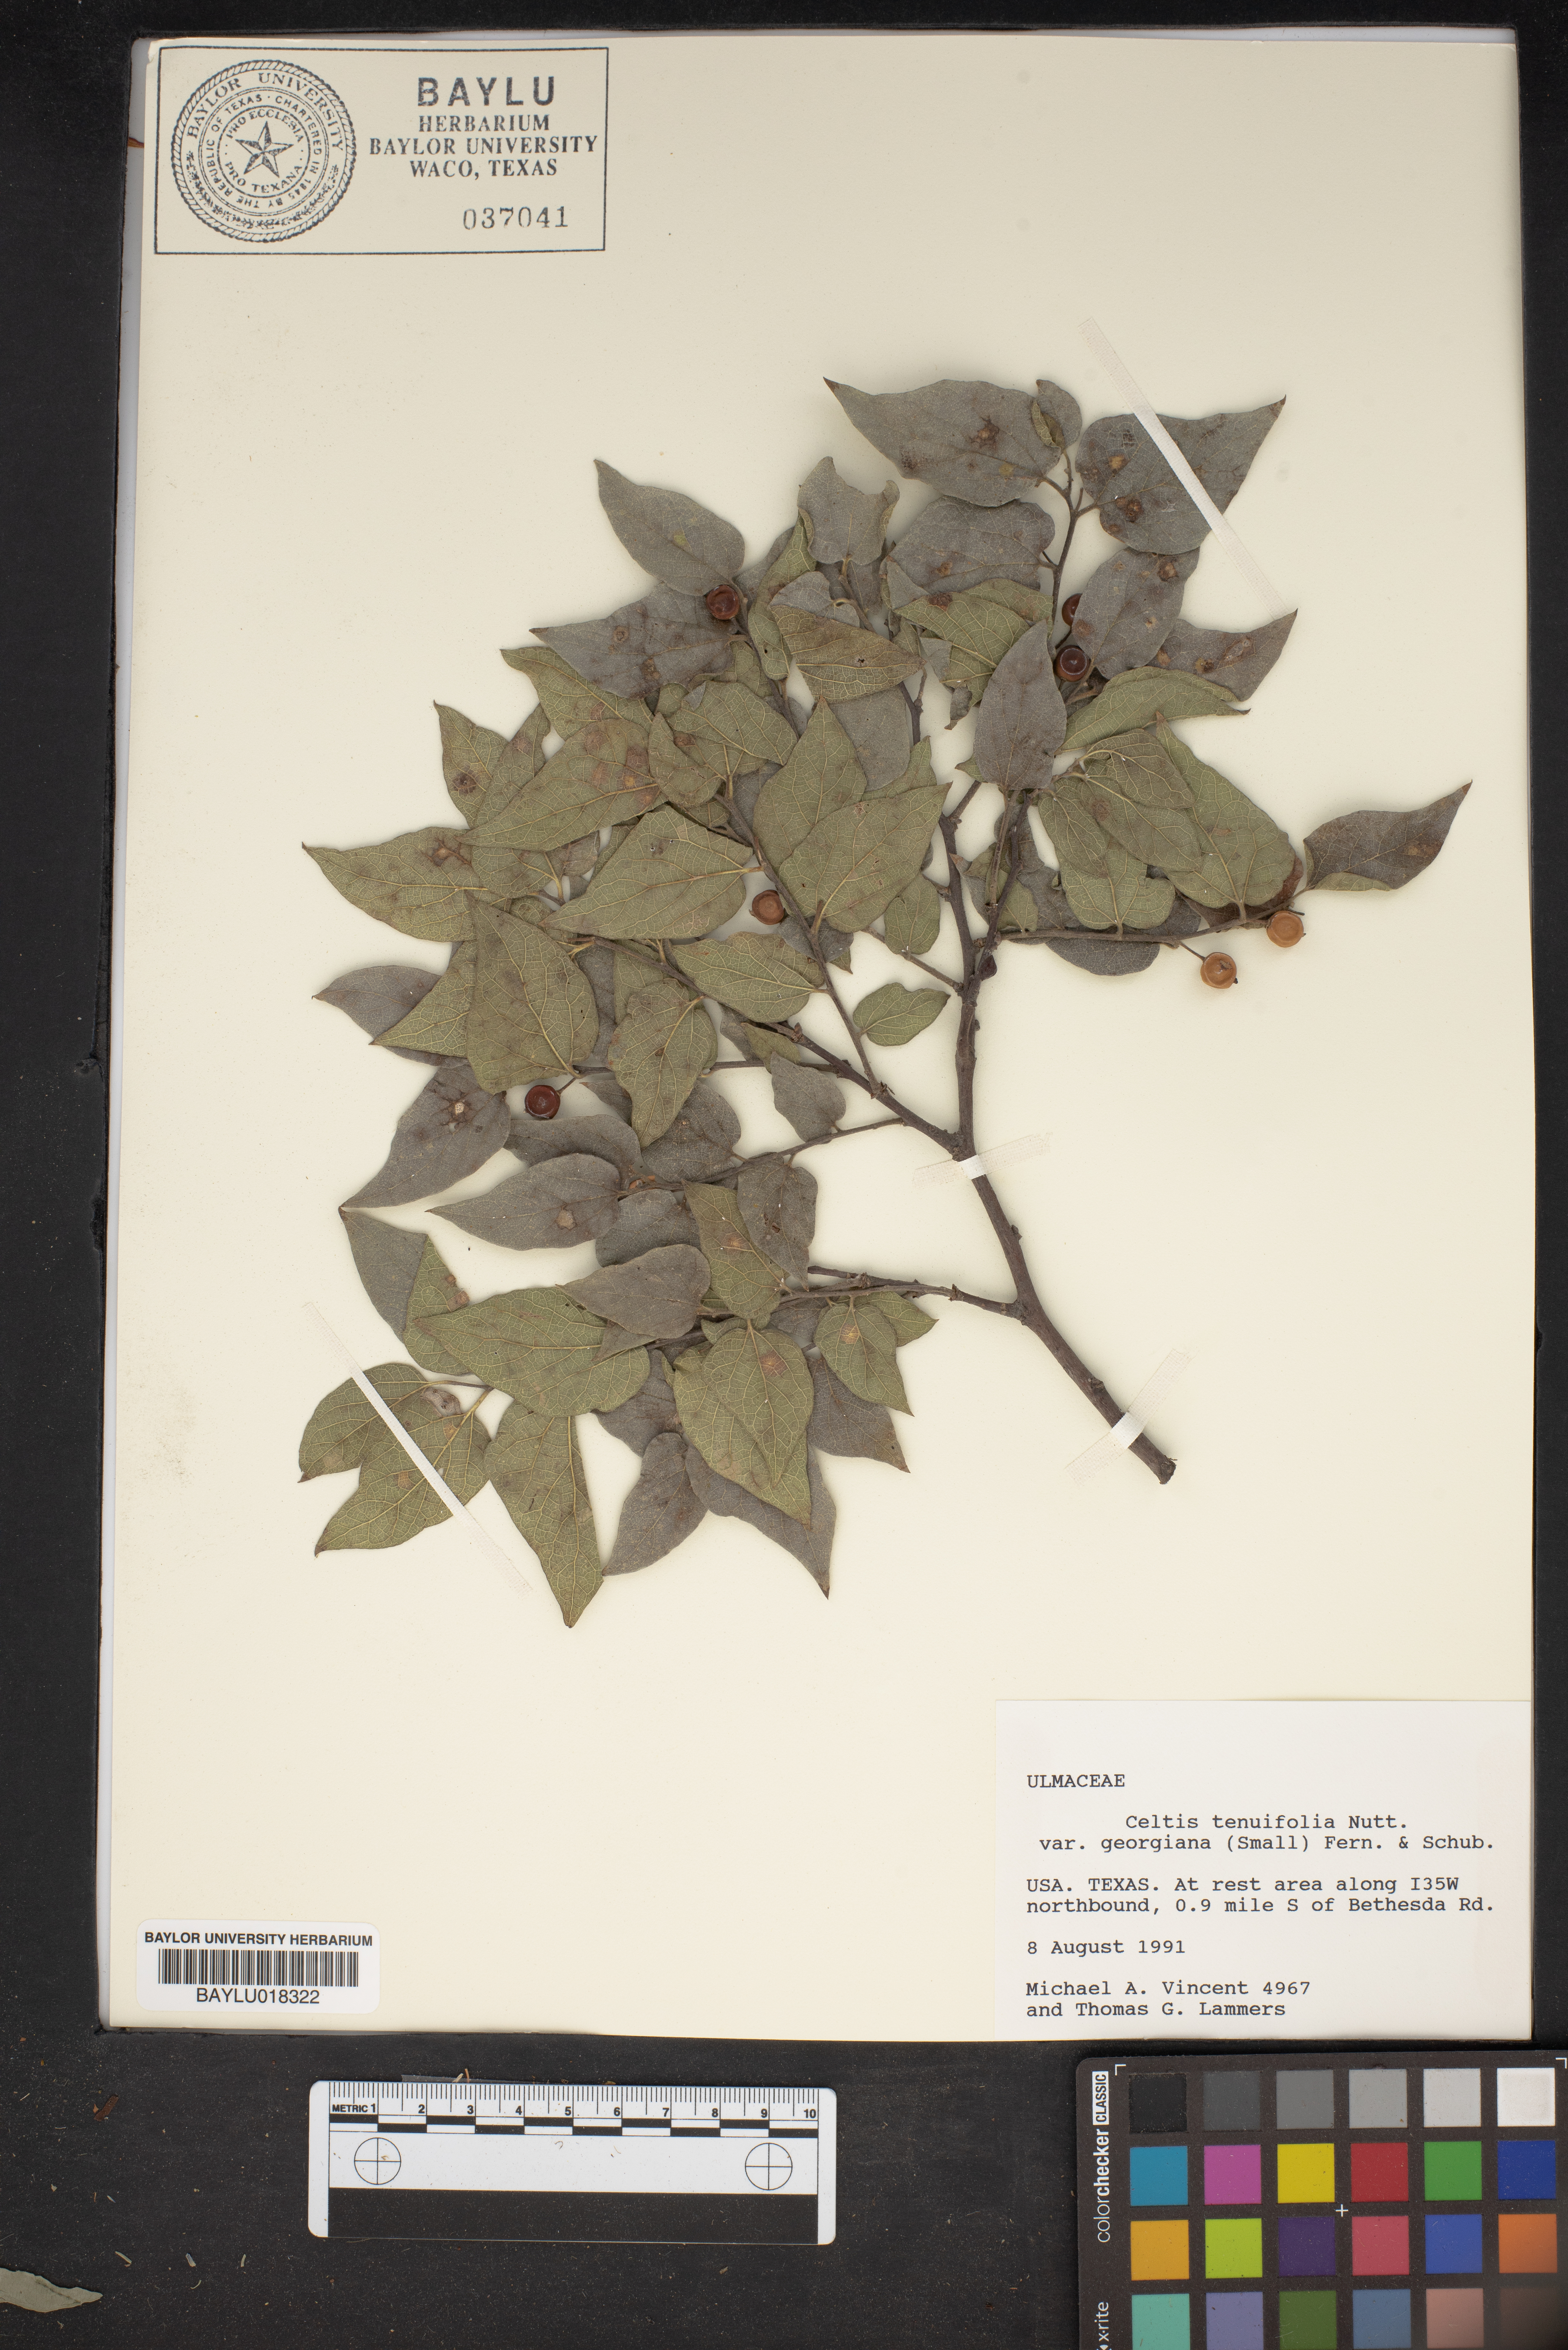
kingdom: Plantae
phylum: Tracheophyta
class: Magnoliopsida
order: Rosales
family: Cannabaceae
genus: Celtis
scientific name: Celtis tenuifolia
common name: Georgia hackberry
